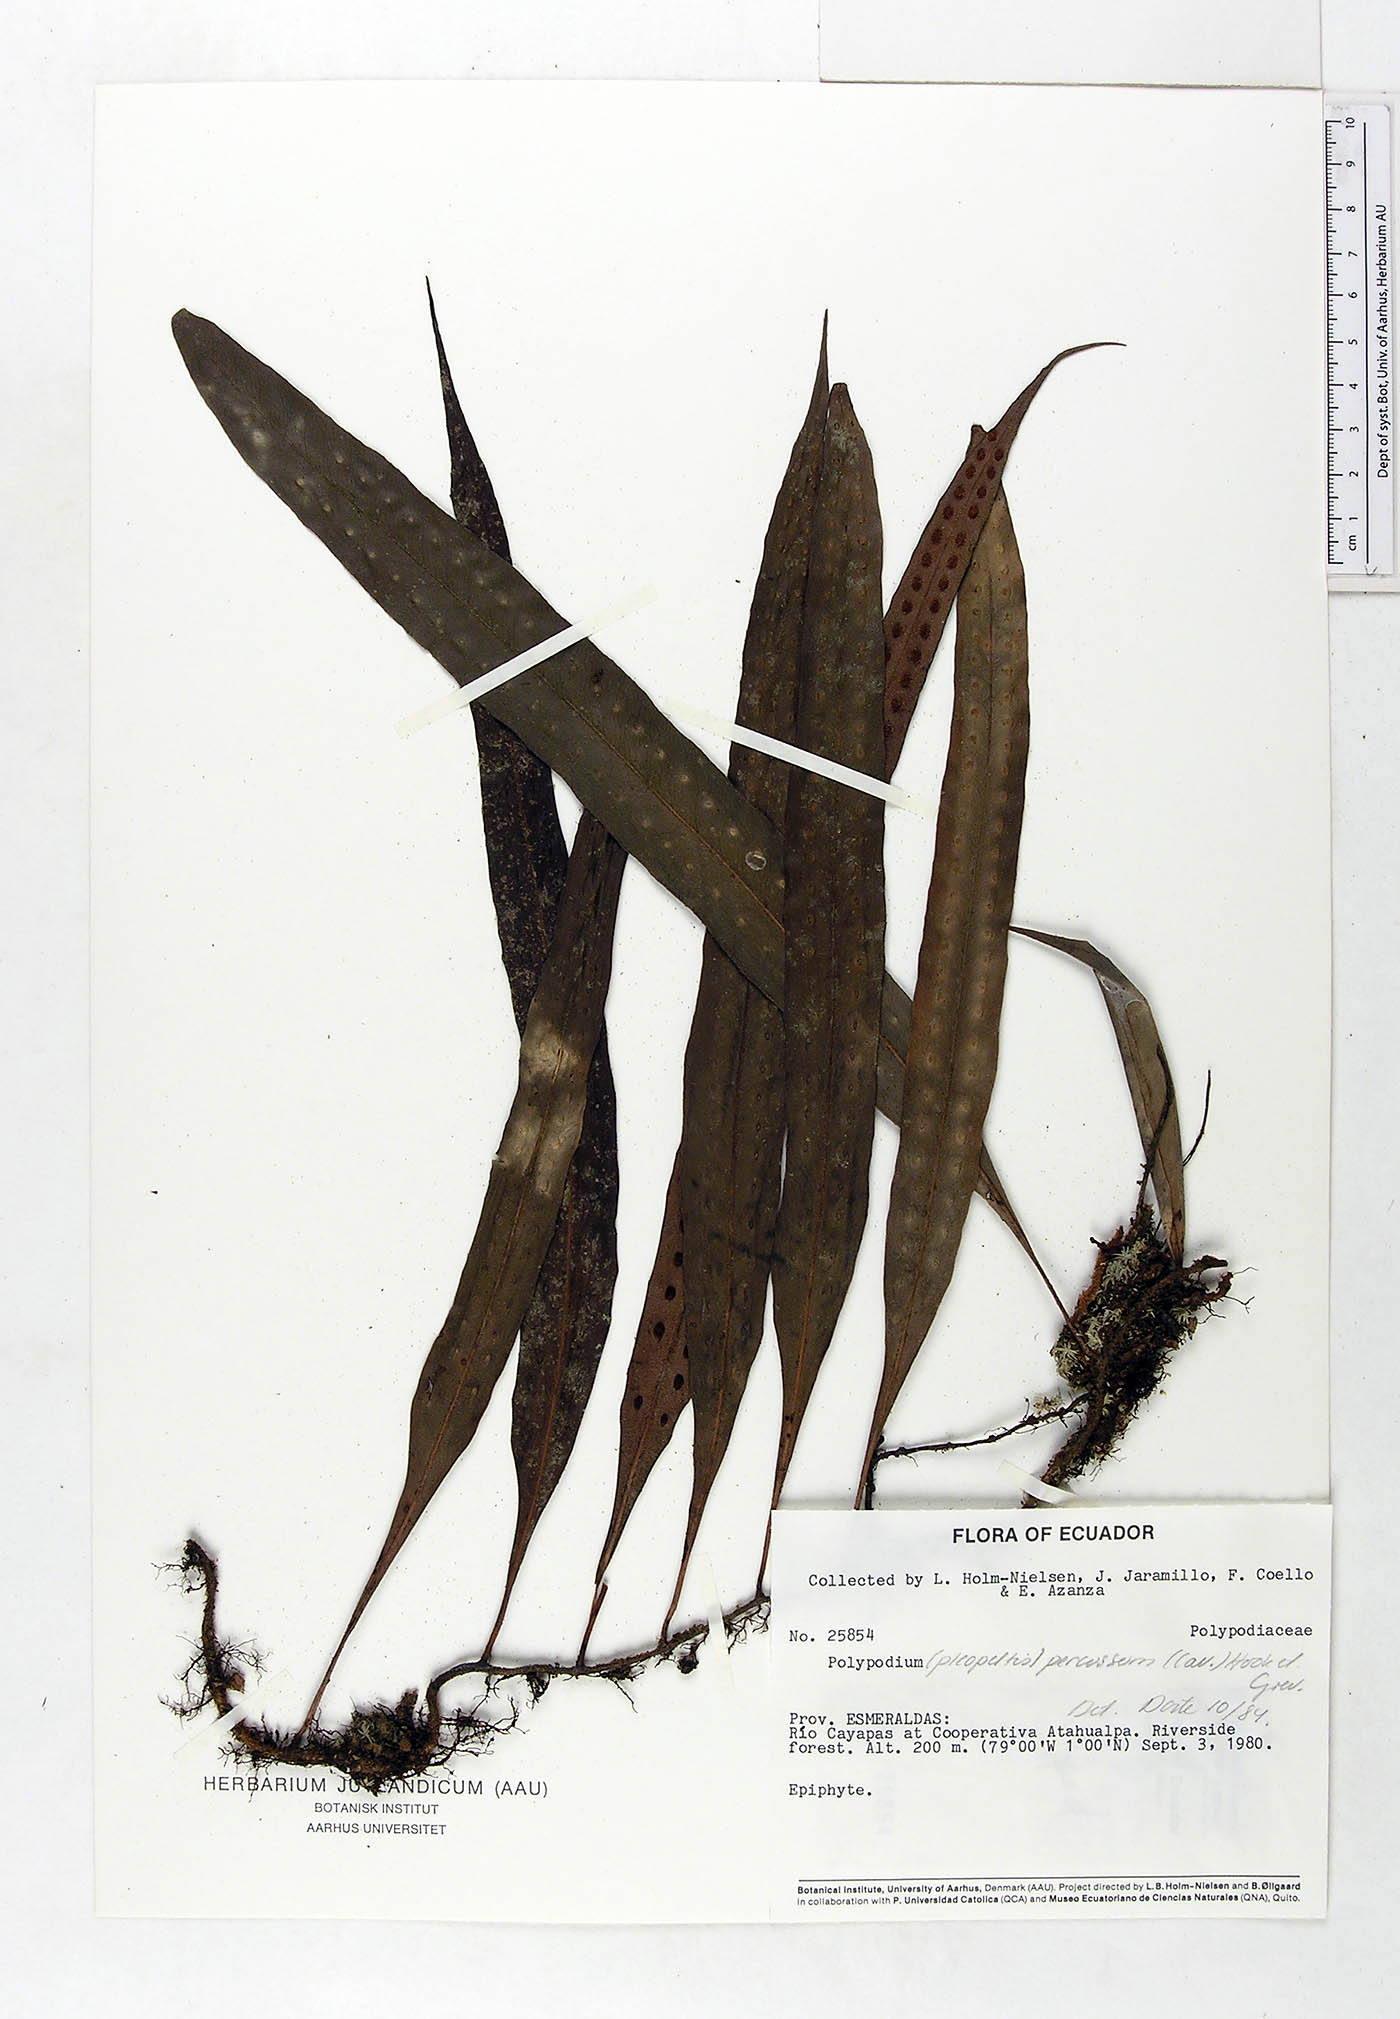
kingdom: Plantae
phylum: Tracheophyta
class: Polypodiopsida
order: Polypodiales
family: Polypodiaceae
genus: Microgramma
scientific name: Microgramma percussa
